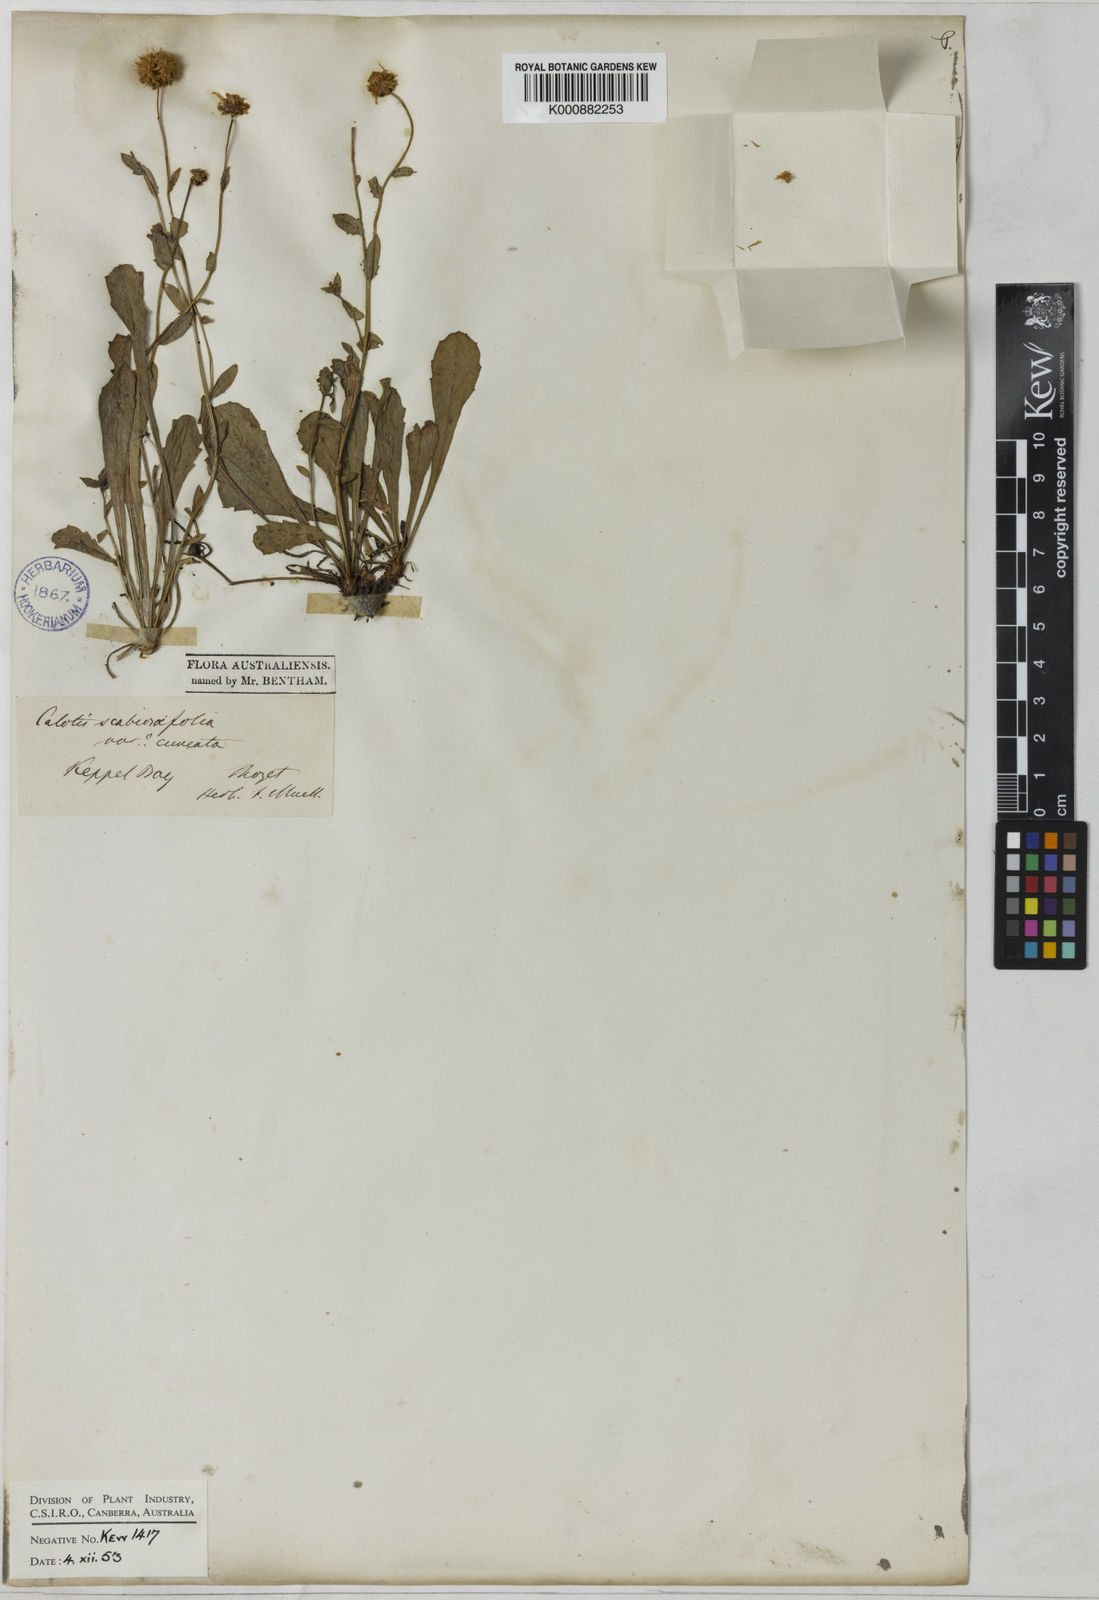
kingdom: Plantae
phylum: Tracheophyta
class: Magnoliopsida
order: Asterales
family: Asteraceae
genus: Calotis
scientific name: Calotis cuneata
